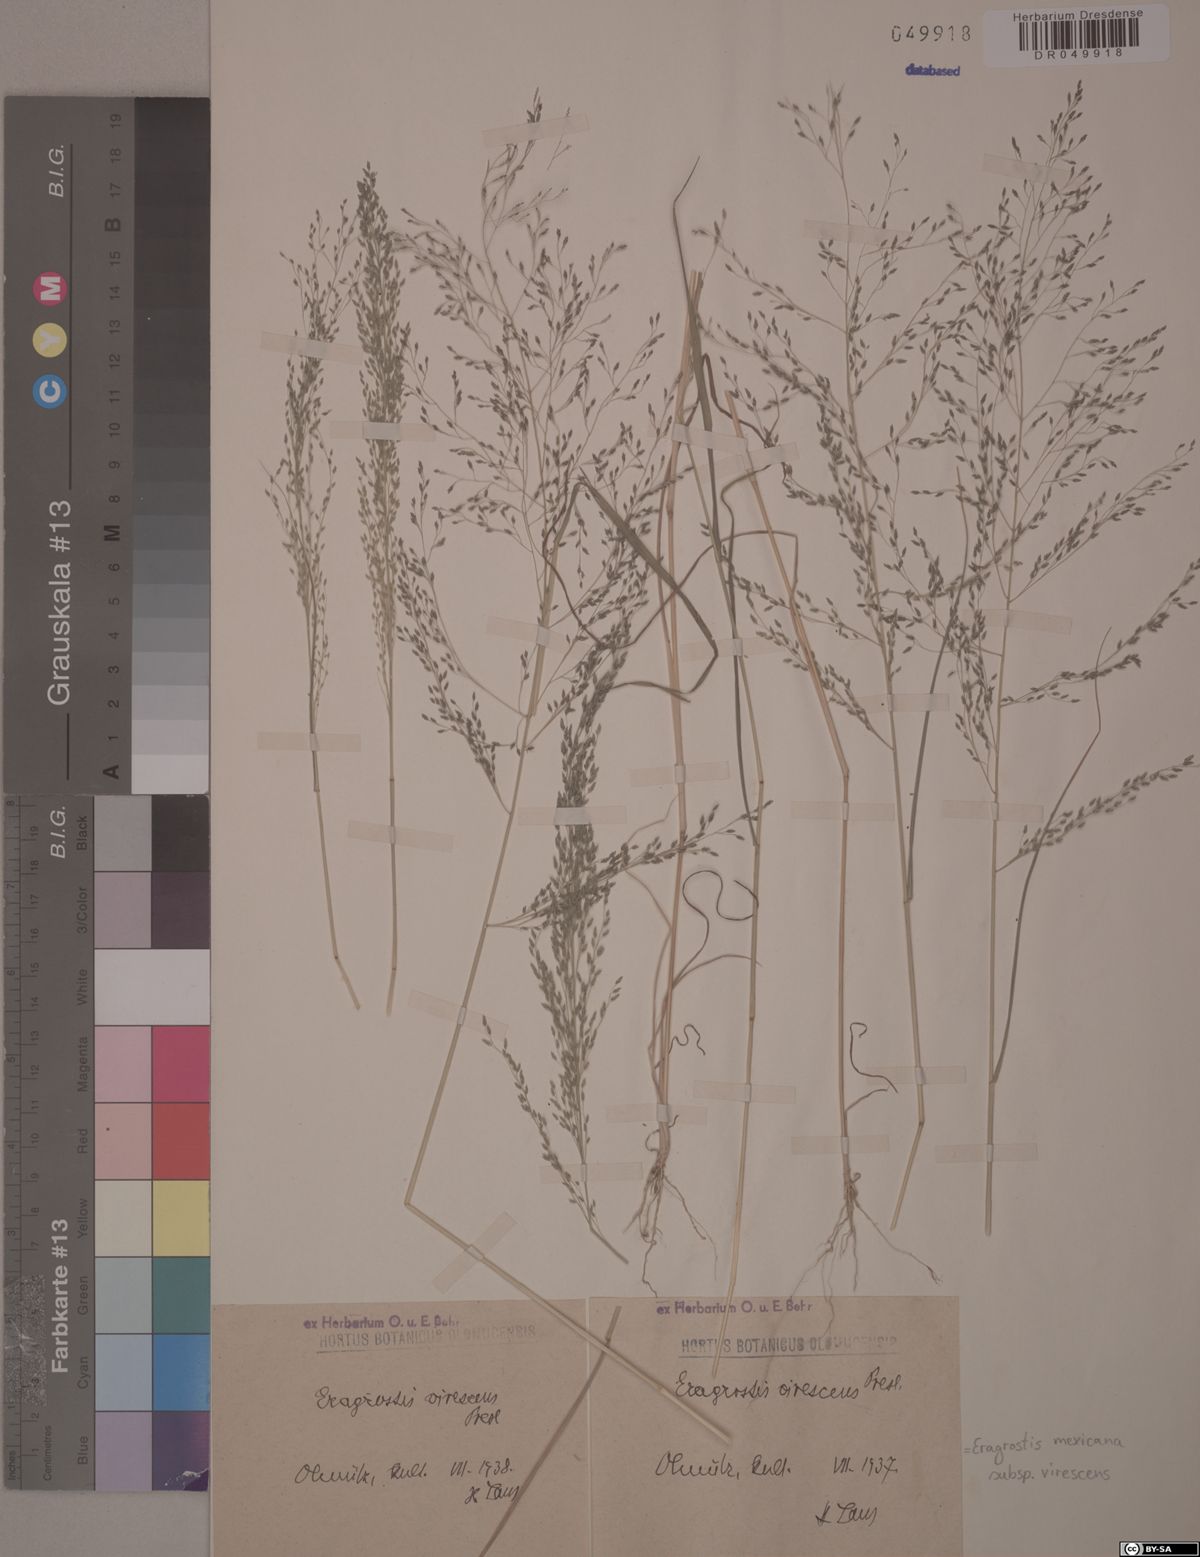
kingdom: Plantae
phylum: Tracheophyta
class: Liliopsida
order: Poales
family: Poaceae
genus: Eragrostis
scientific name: Eragrostis virescens
